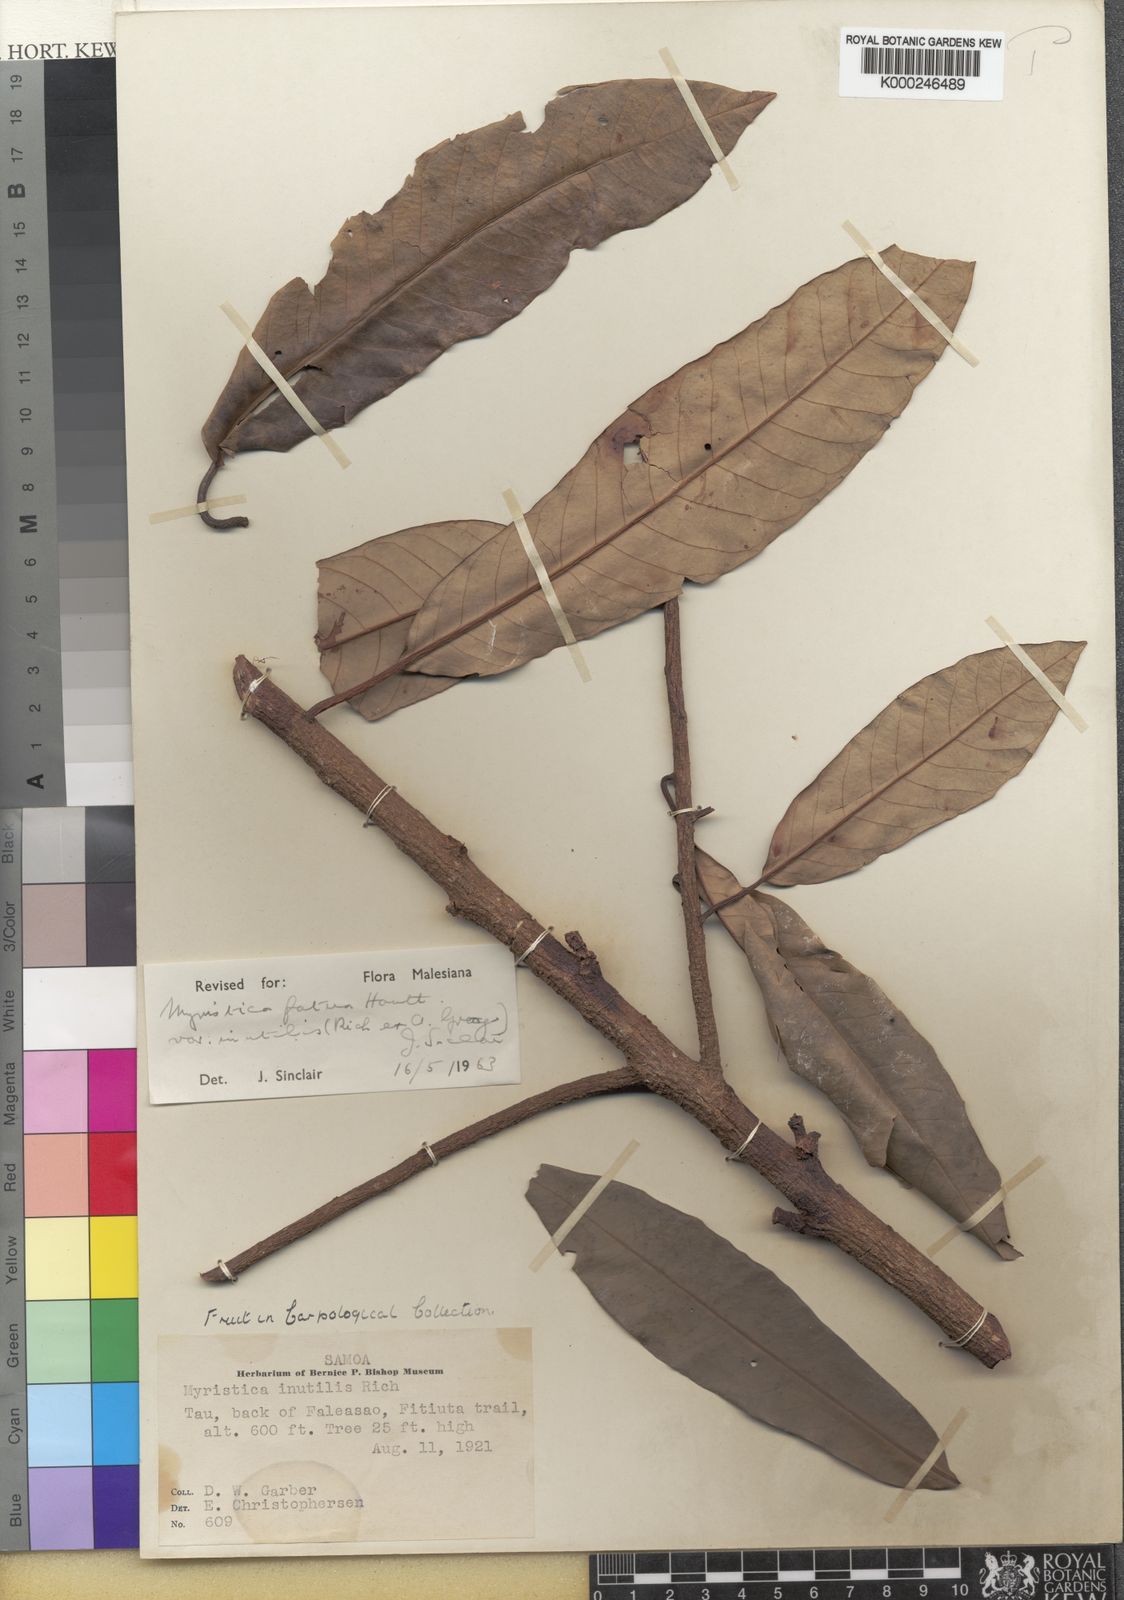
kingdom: Plantae
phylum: Tracheophyta
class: Magnoliopsida
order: Magnoliales
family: Myristicaceae
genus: Myristica
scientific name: Myristica fatua
